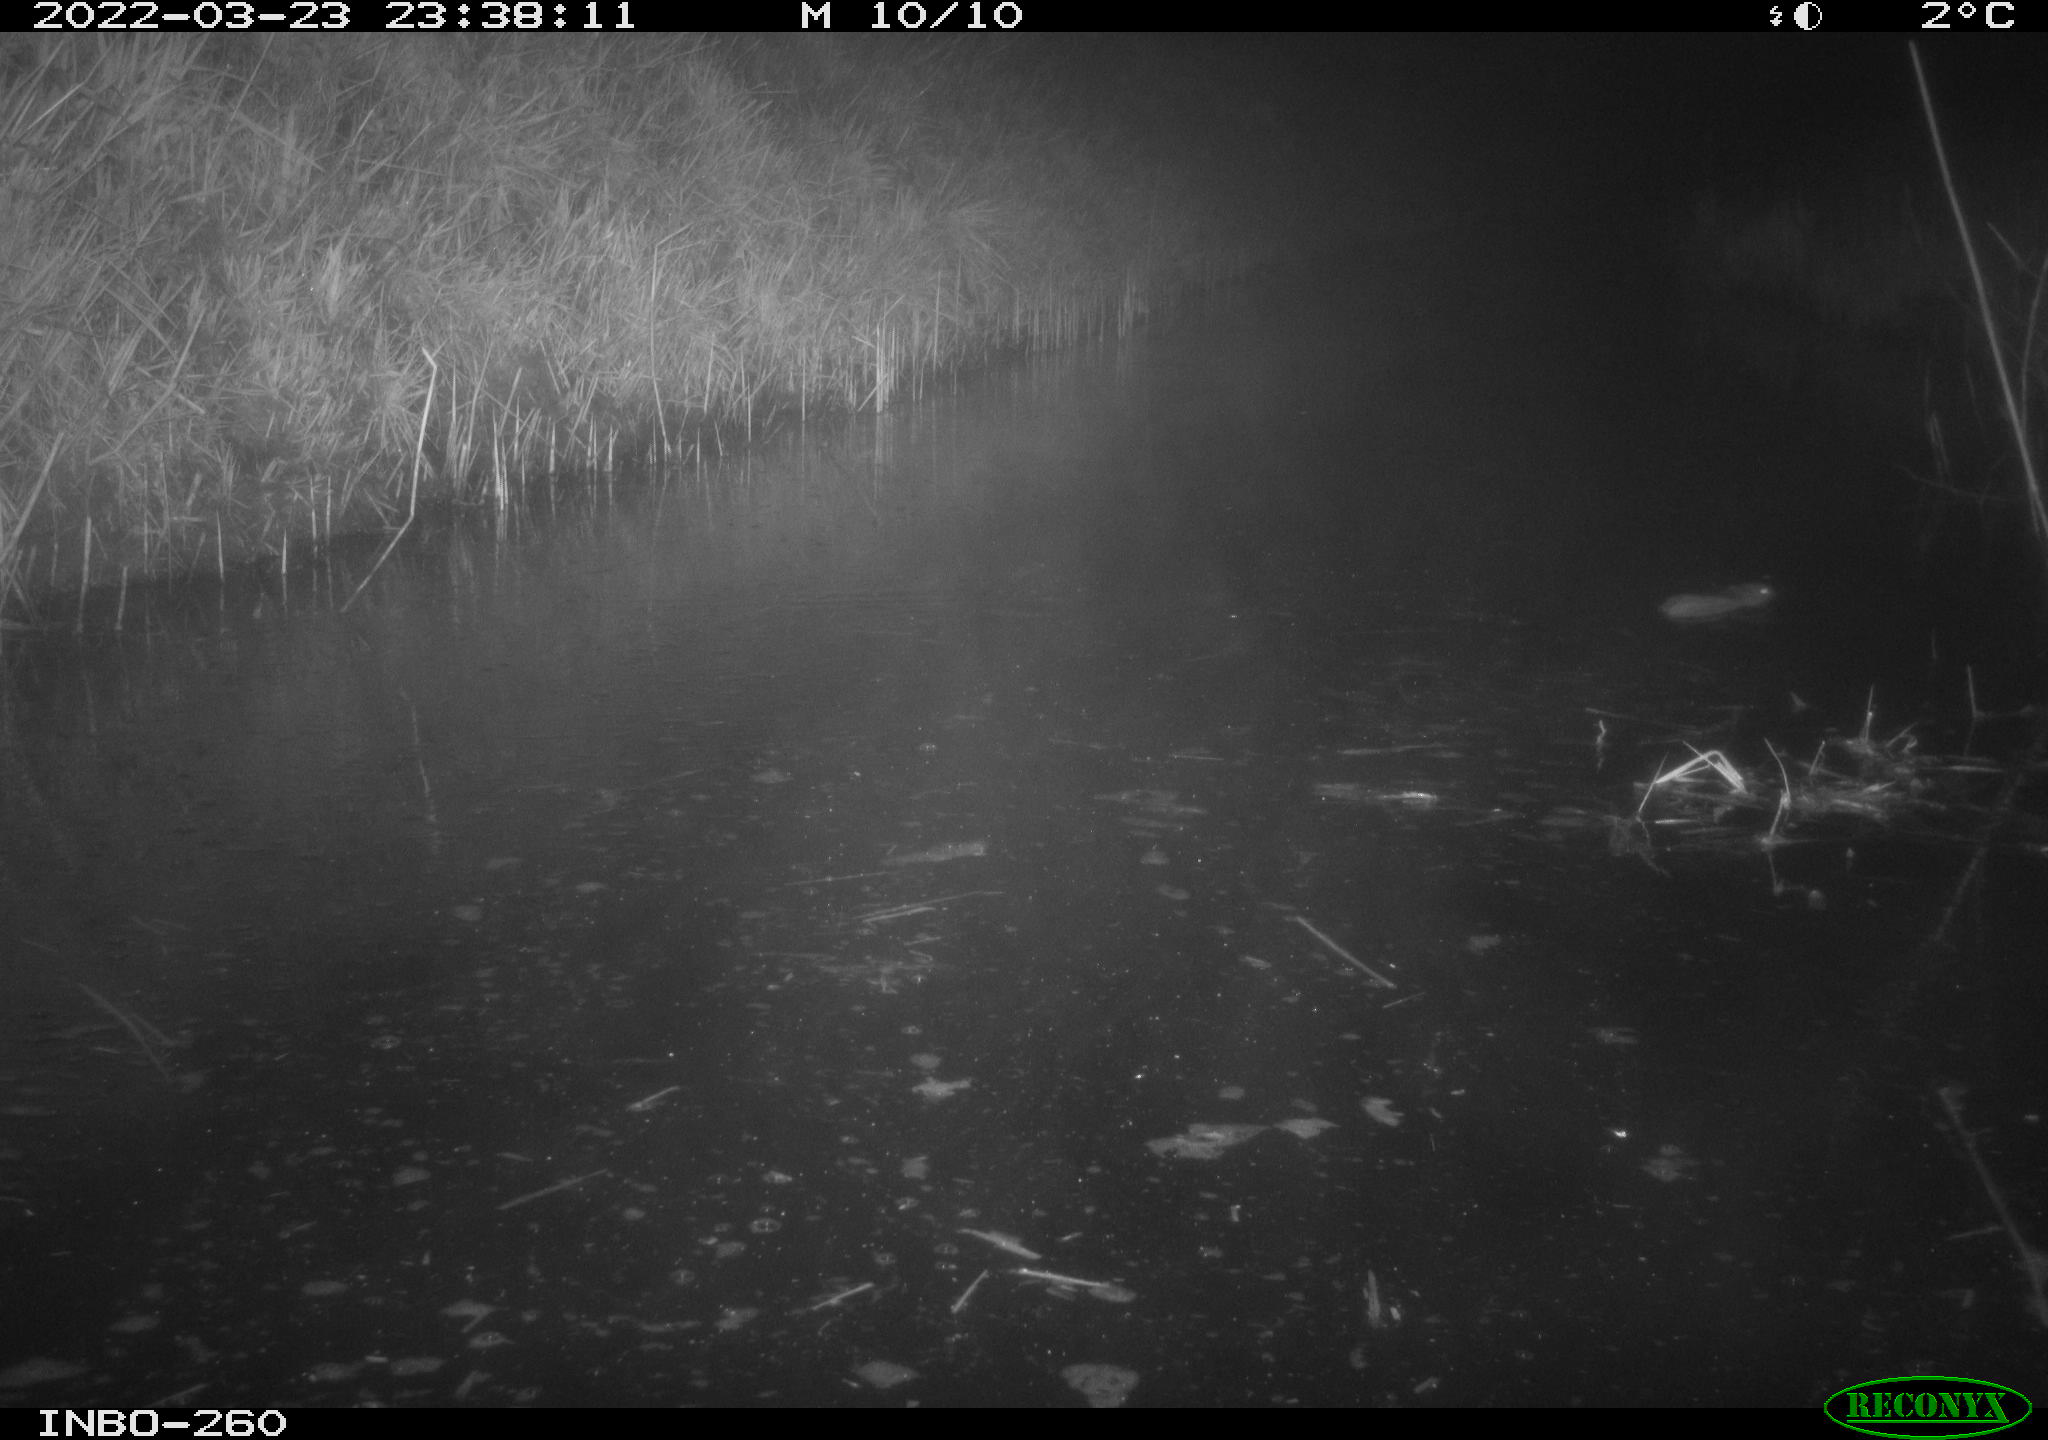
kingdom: Animalia
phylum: Chordata
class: Mammalia
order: Rodentia
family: Muridae
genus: Rattus
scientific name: Rattus norvegicus
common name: Brown rat
